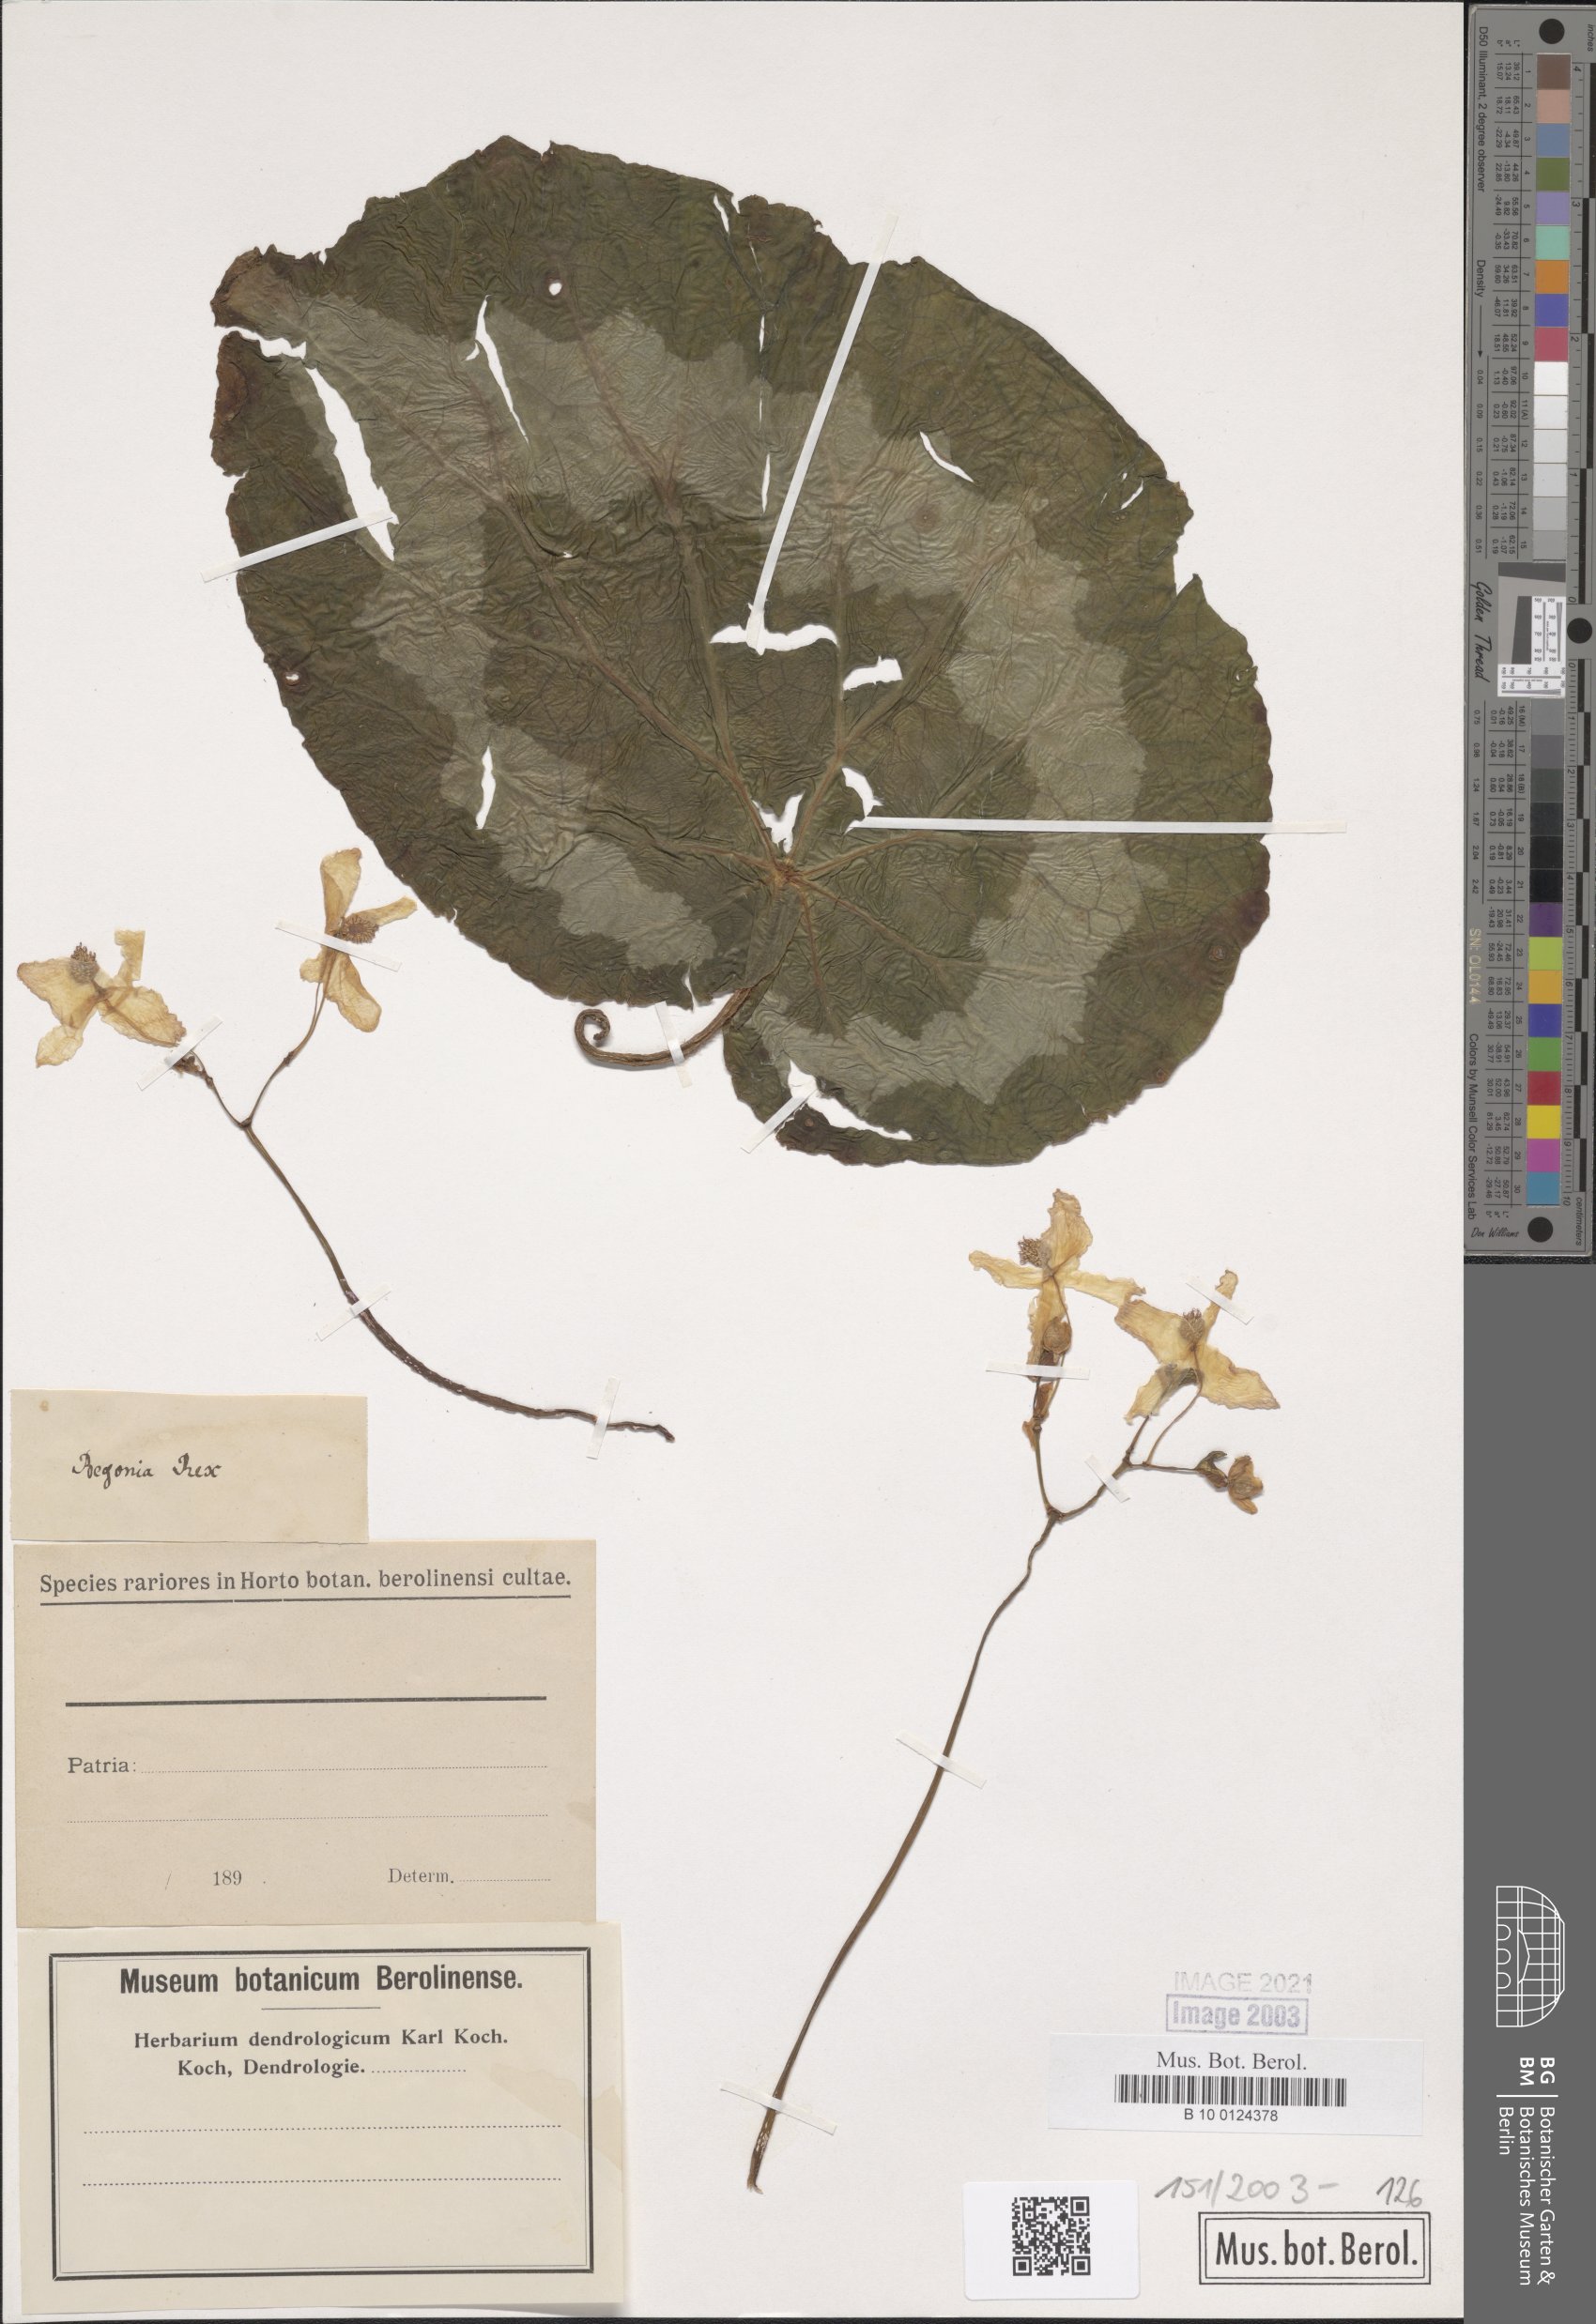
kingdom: Plantae
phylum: Tracheophyta
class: Magnoliopsida
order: Cucurbitales
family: Begoniaceae
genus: Begonia
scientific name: Begonia rex
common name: Painted-leaf begonia
